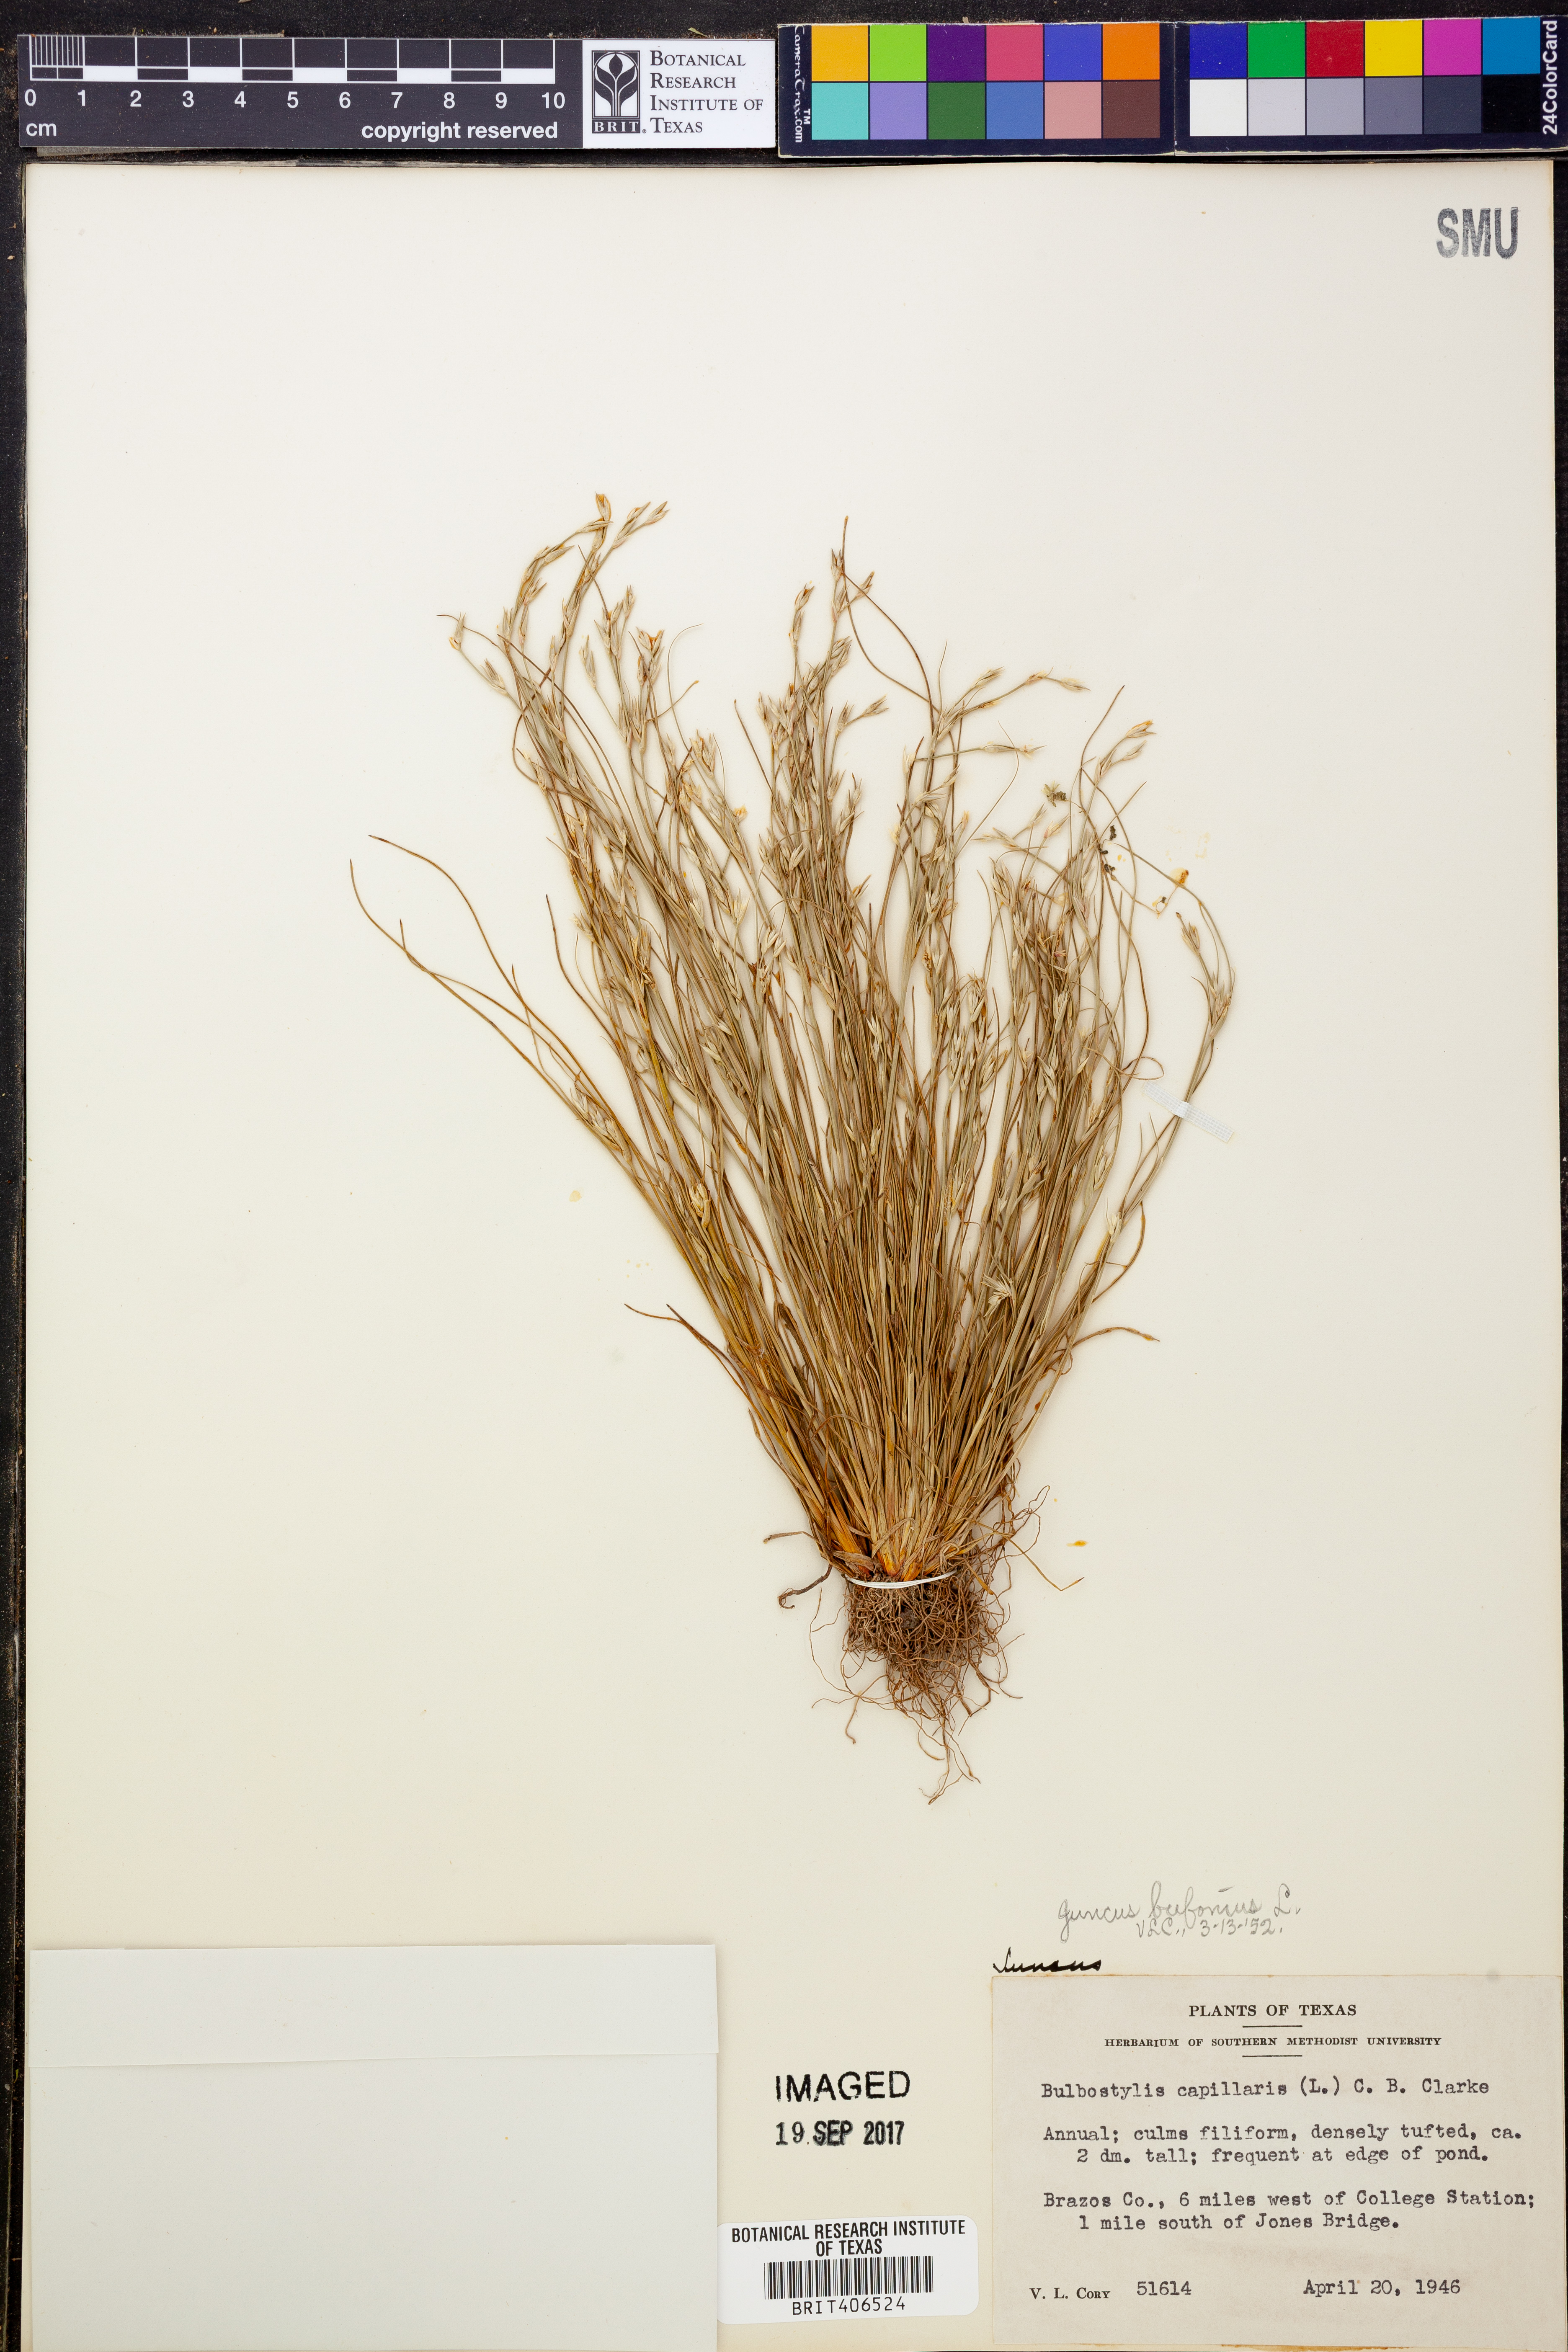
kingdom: Plantae
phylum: Tracheophyta
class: Liliopsida
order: Poales
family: Juncaceae
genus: Juncus
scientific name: Juncus bufonius
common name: Toad rush
